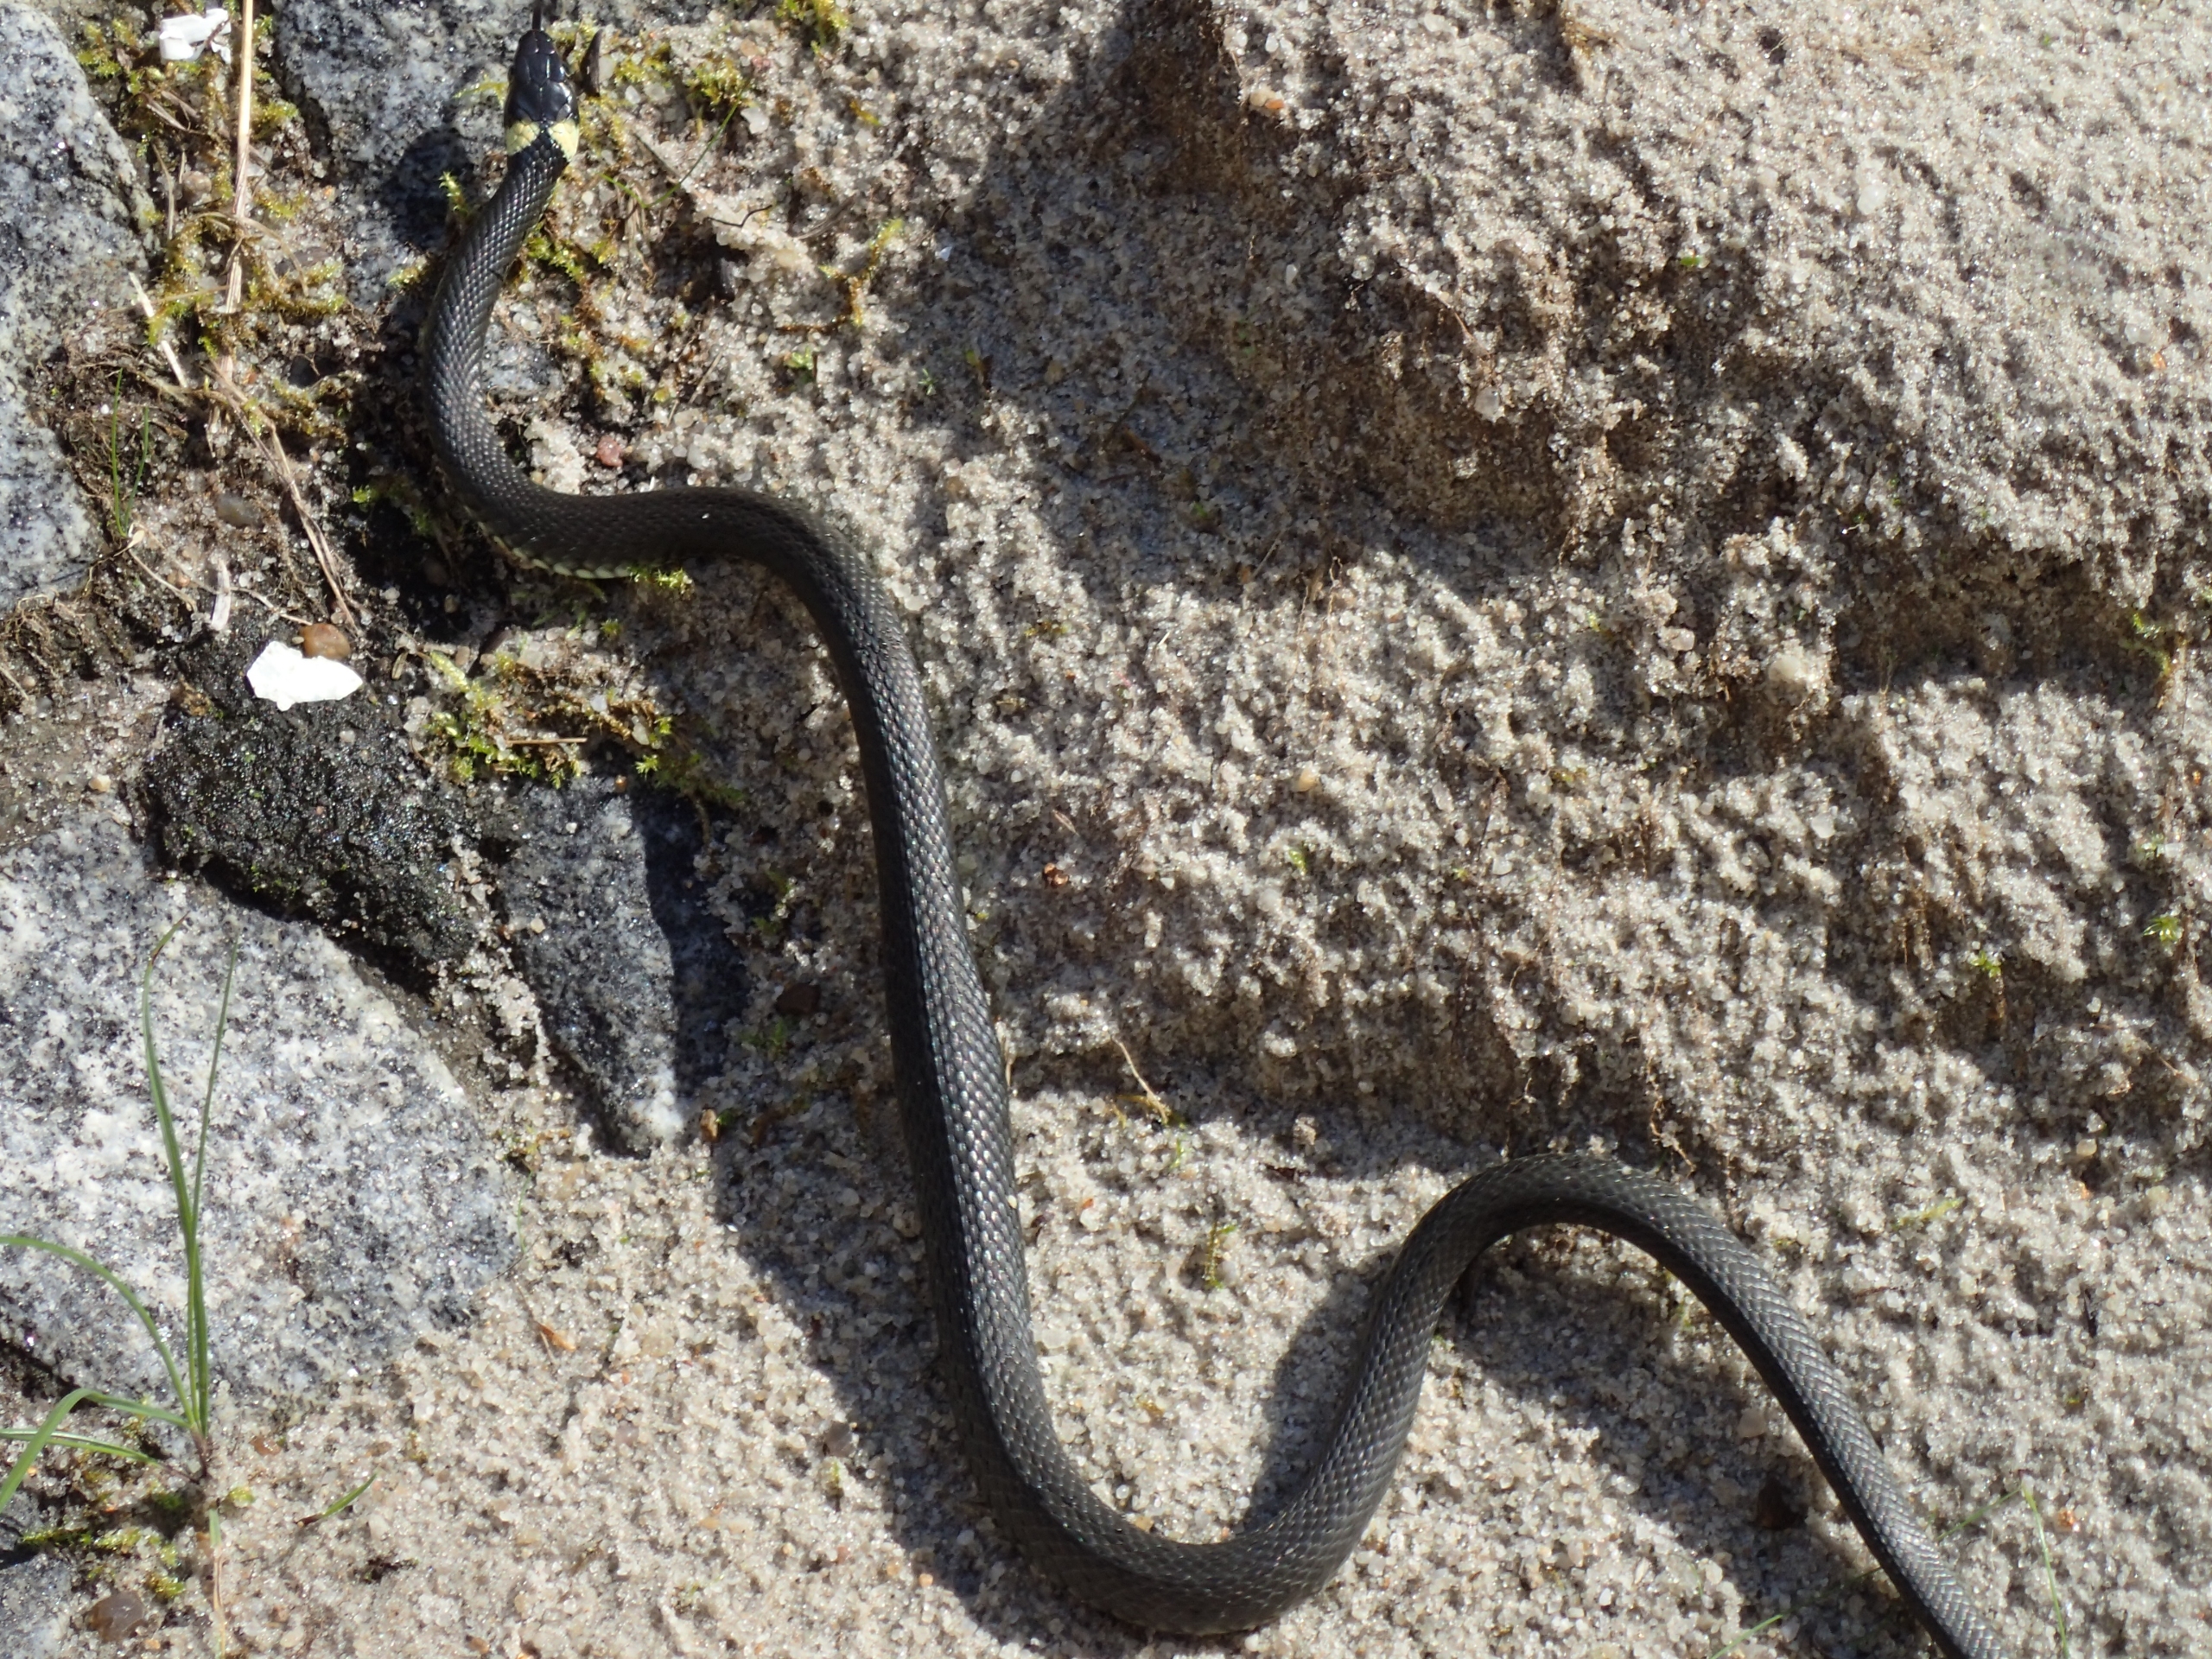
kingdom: Animalia
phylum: Chordata
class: Squamata
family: Colubridae
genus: Natrix
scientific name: Natrix natrix
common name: Snog
